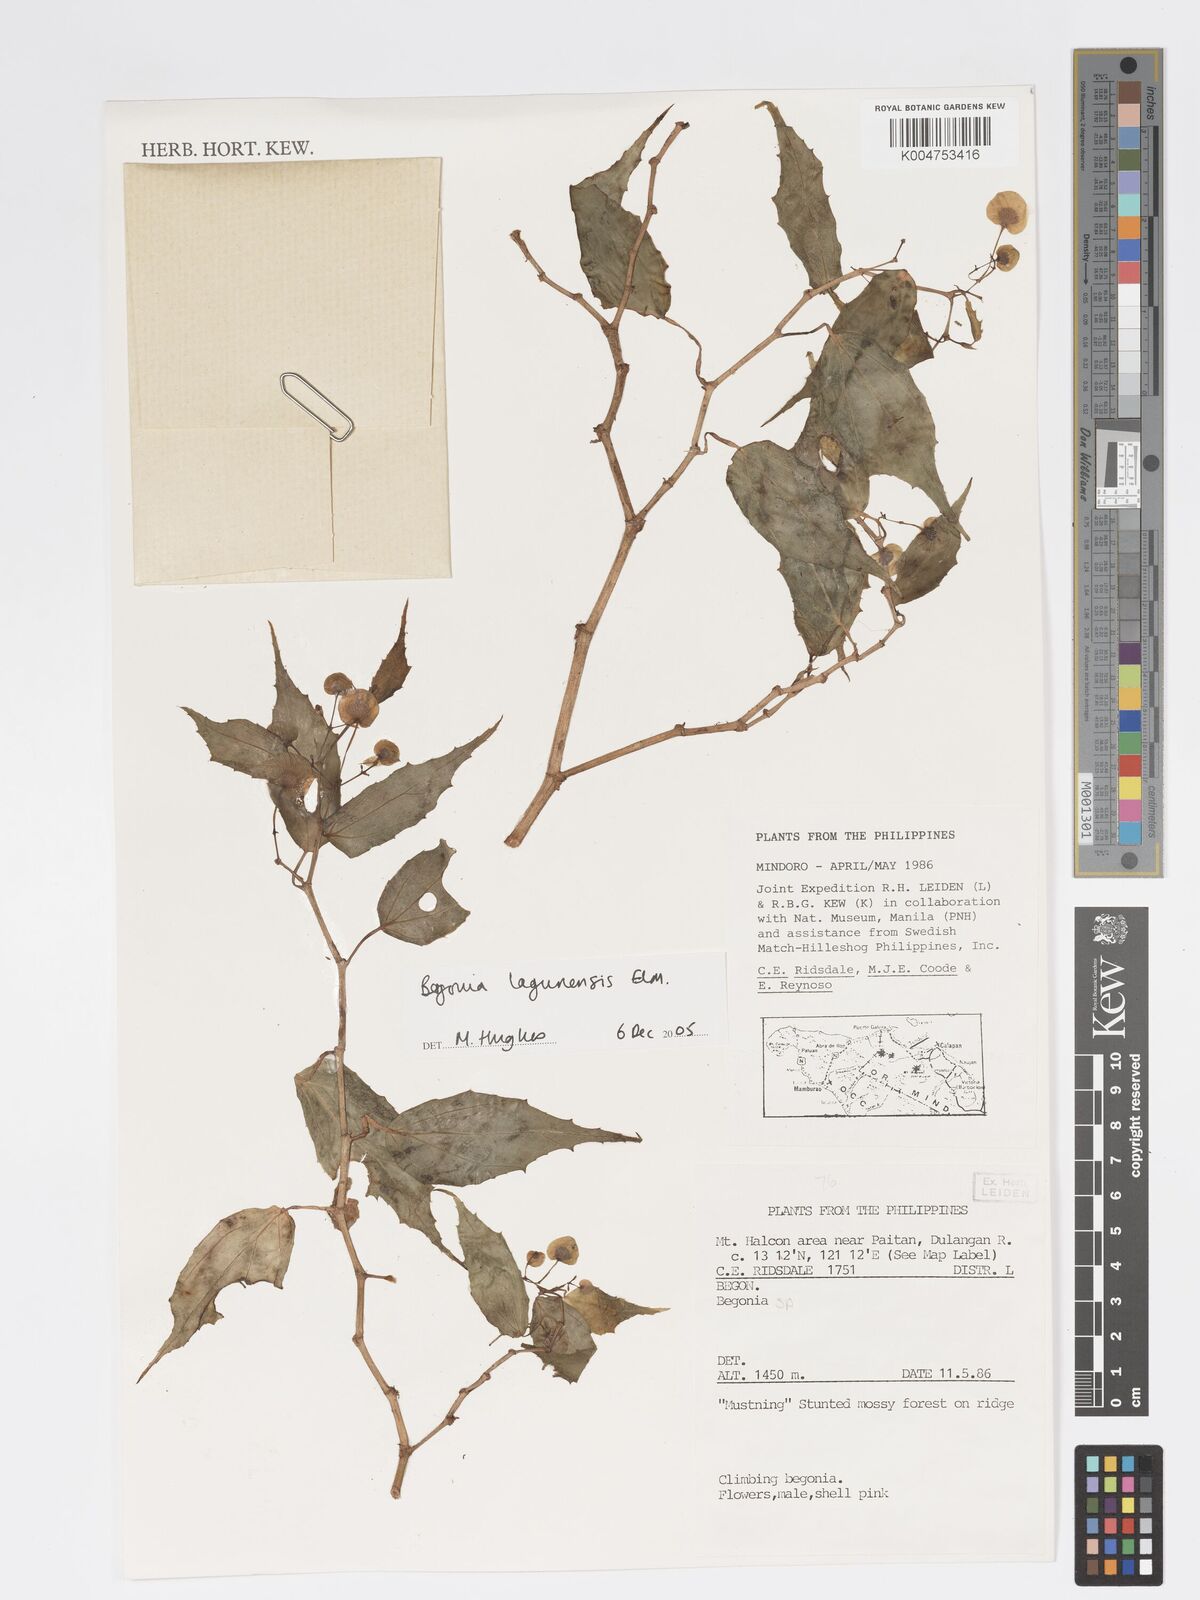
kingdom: Plantae
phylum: Tracheophyta
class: Magnoliopsida
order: Cucurbitales
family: Begoniaceae
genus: Begonia
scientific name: Begonia lagunensis
